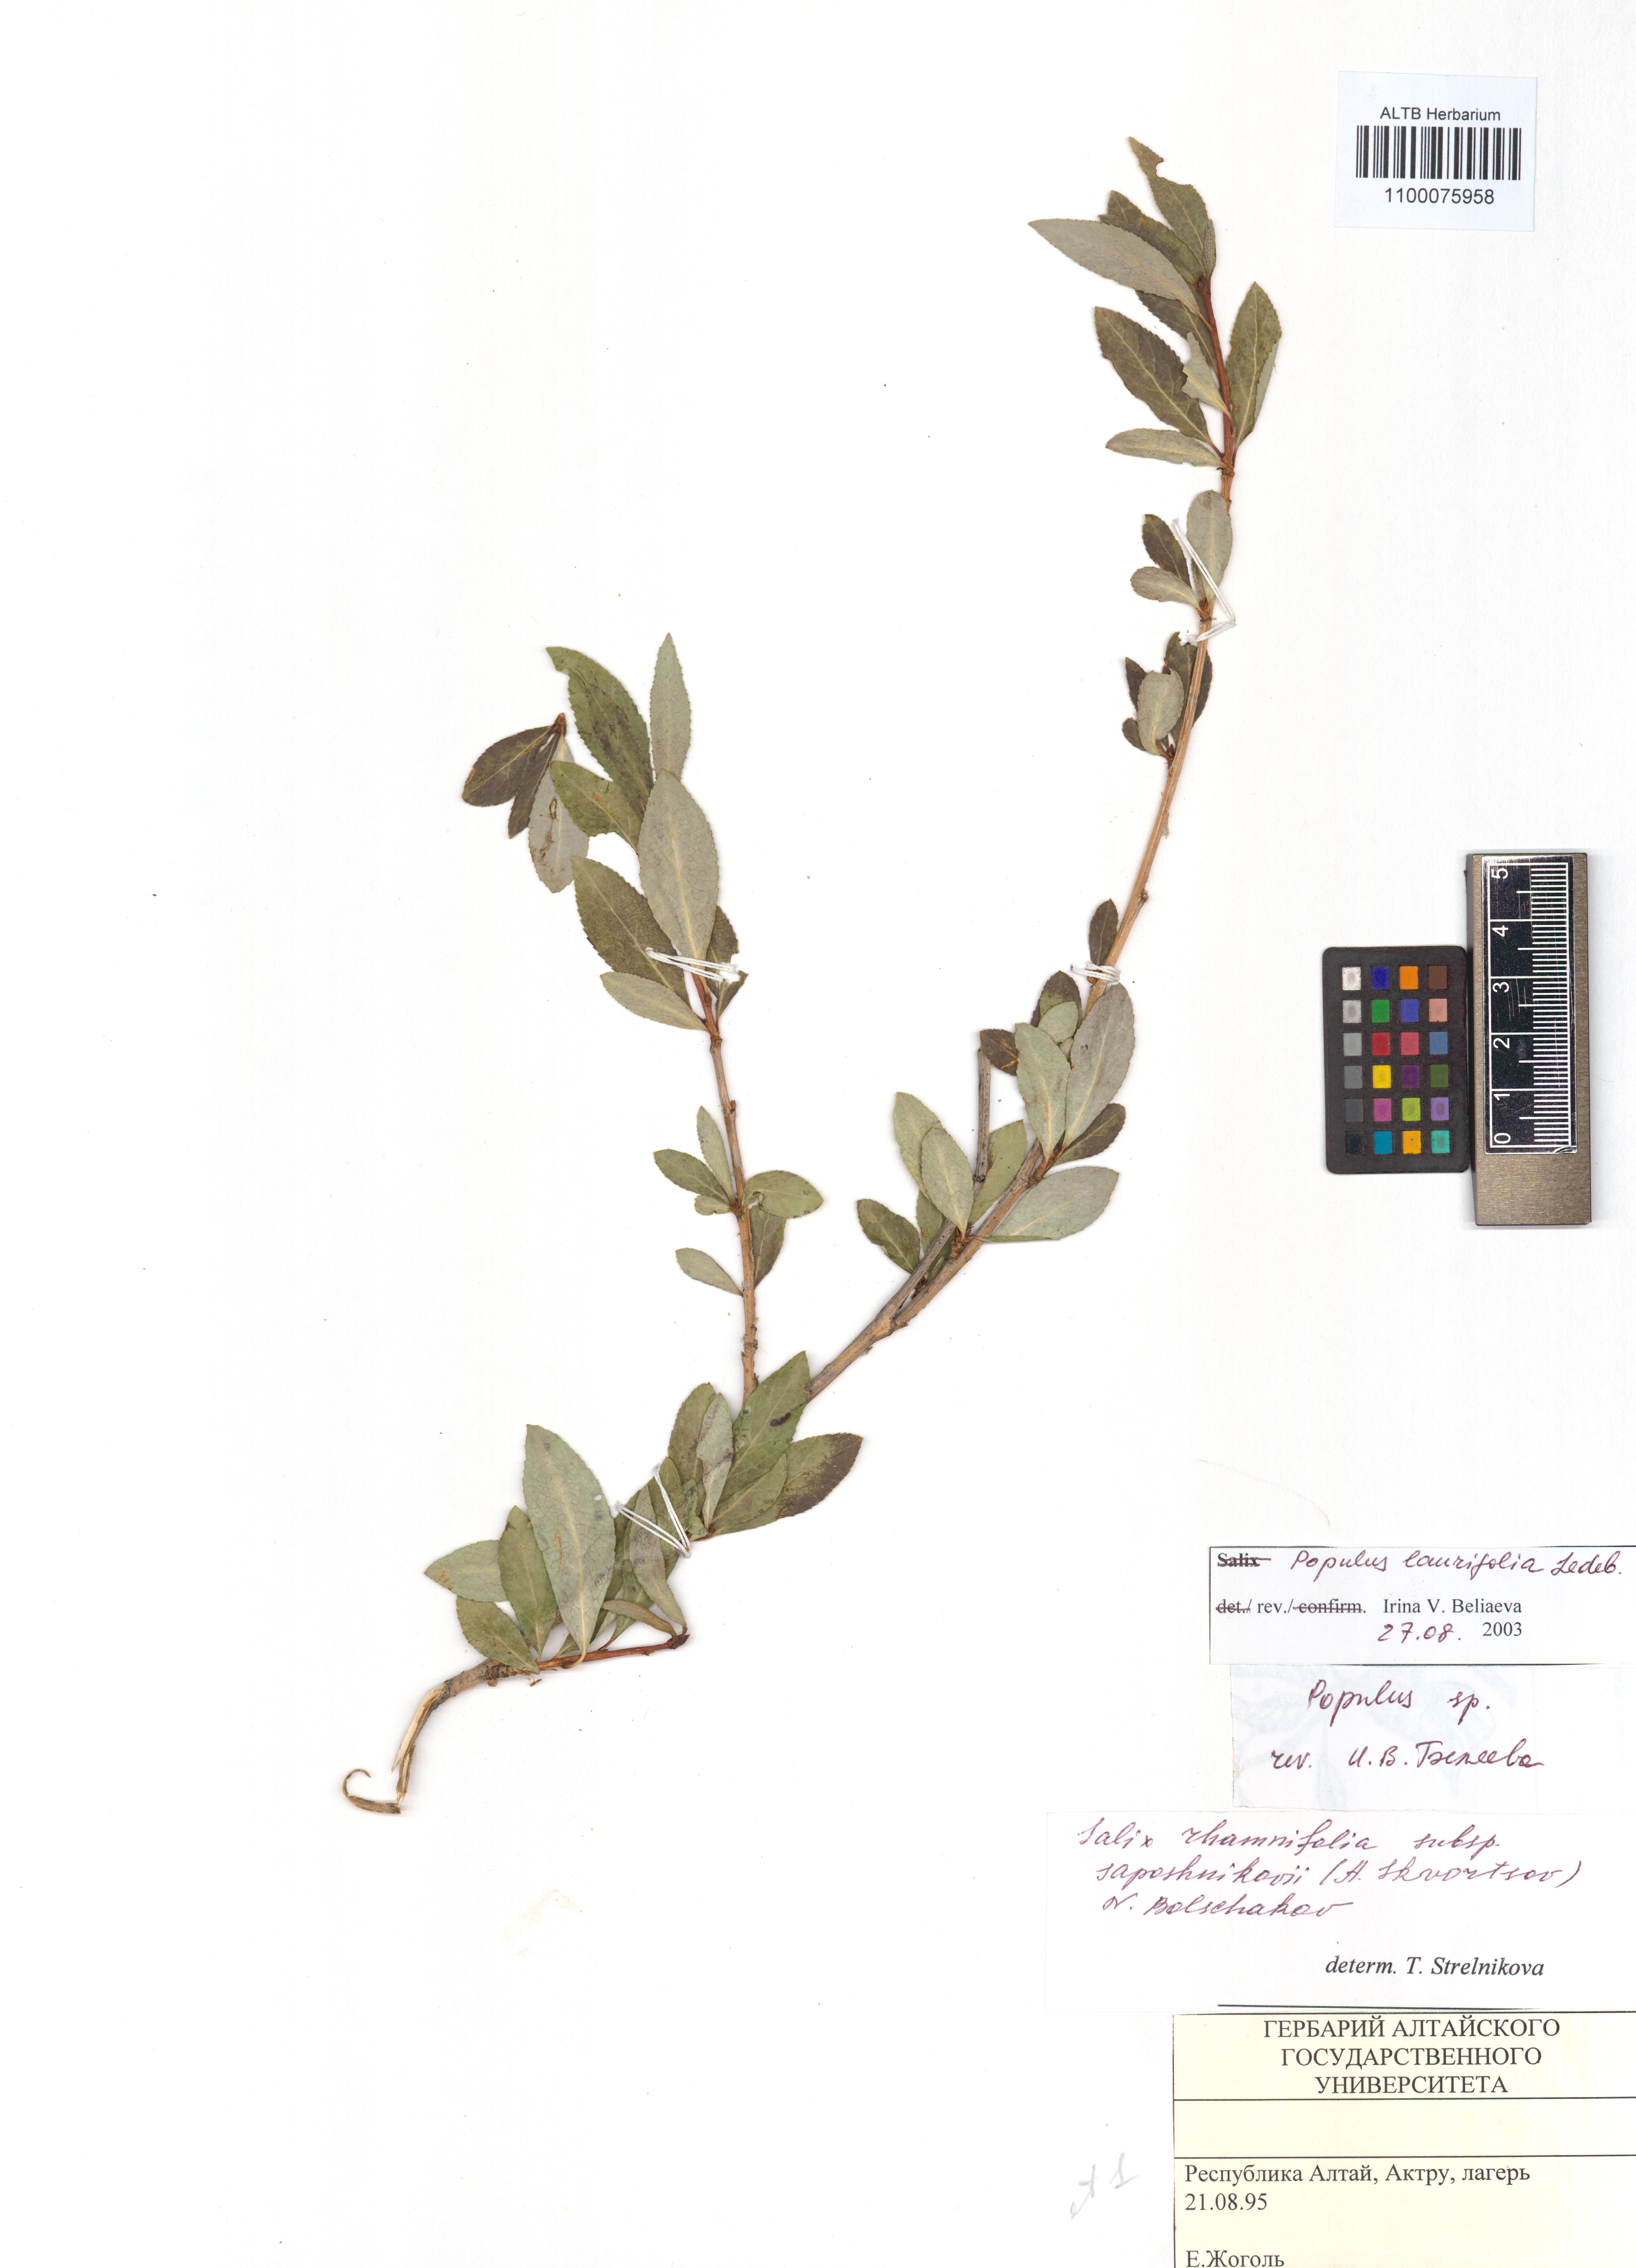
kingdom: Plantae
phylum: Tracheophyta
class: Magnoliopsida
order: Malpighiales
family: Salicaceae
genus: Populus
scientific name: Populus laurifolia
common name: Laurel-leaf poplar
